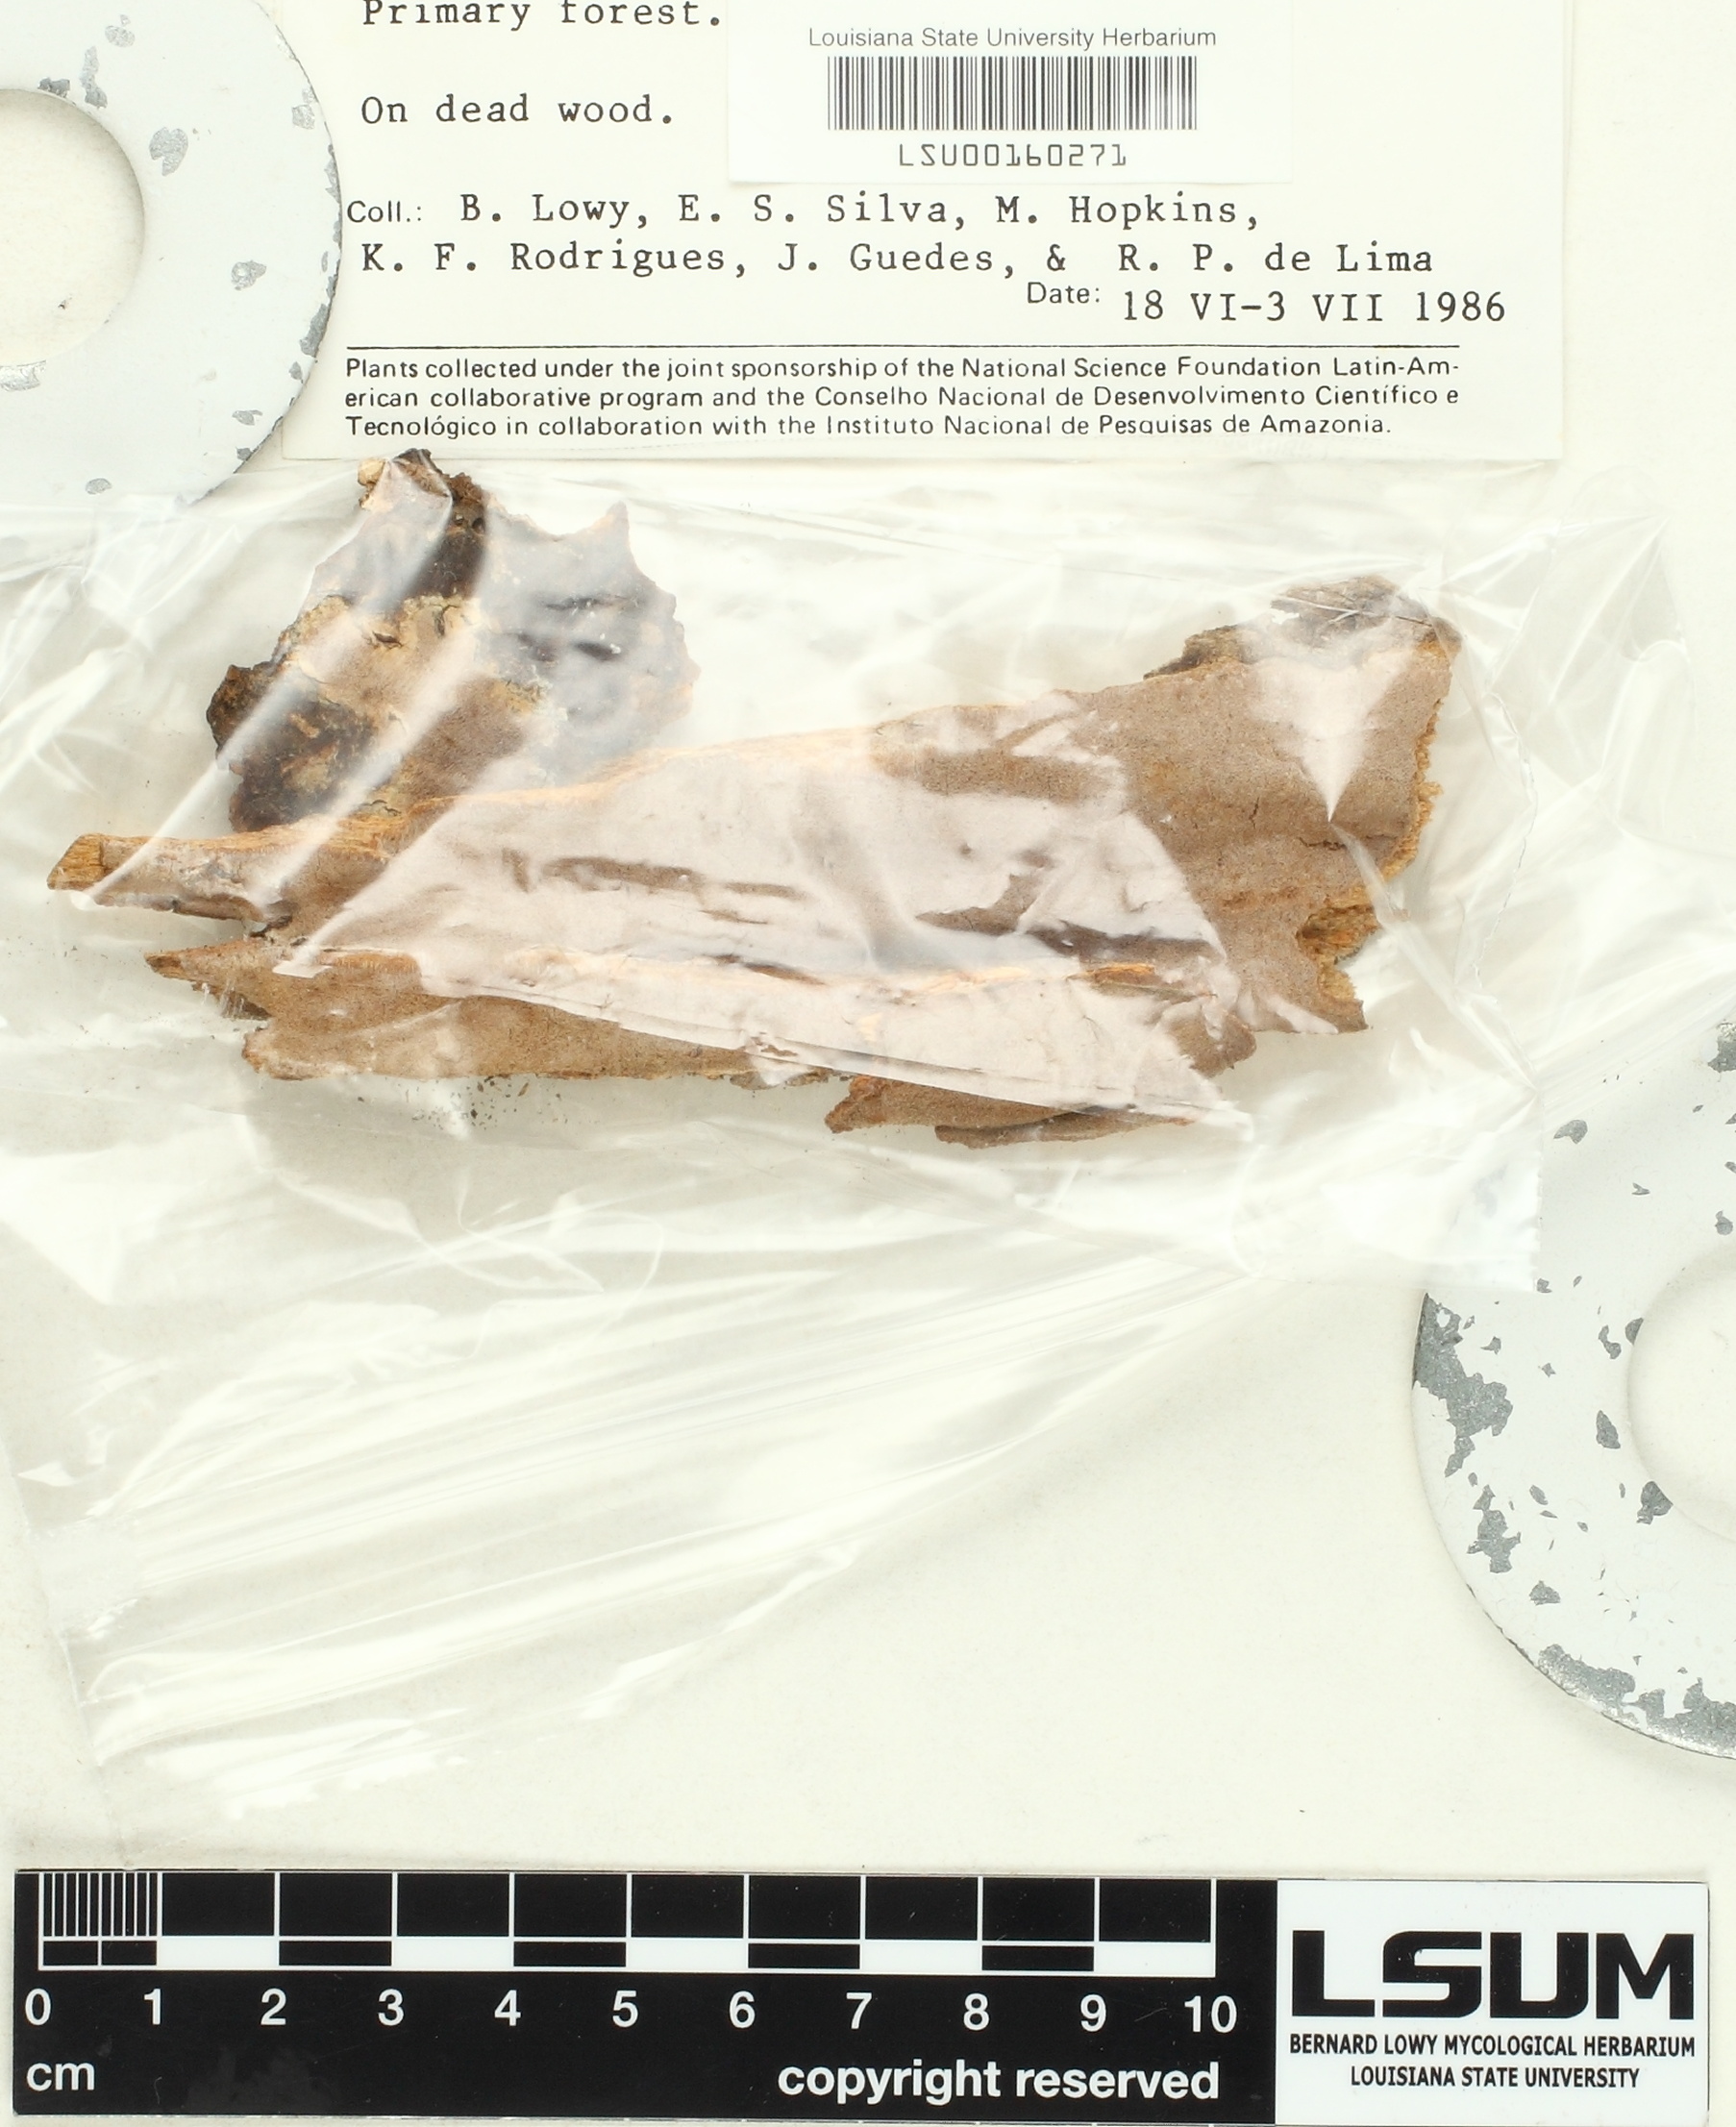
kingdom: Fungi
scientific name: Fungi
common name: Fungi
